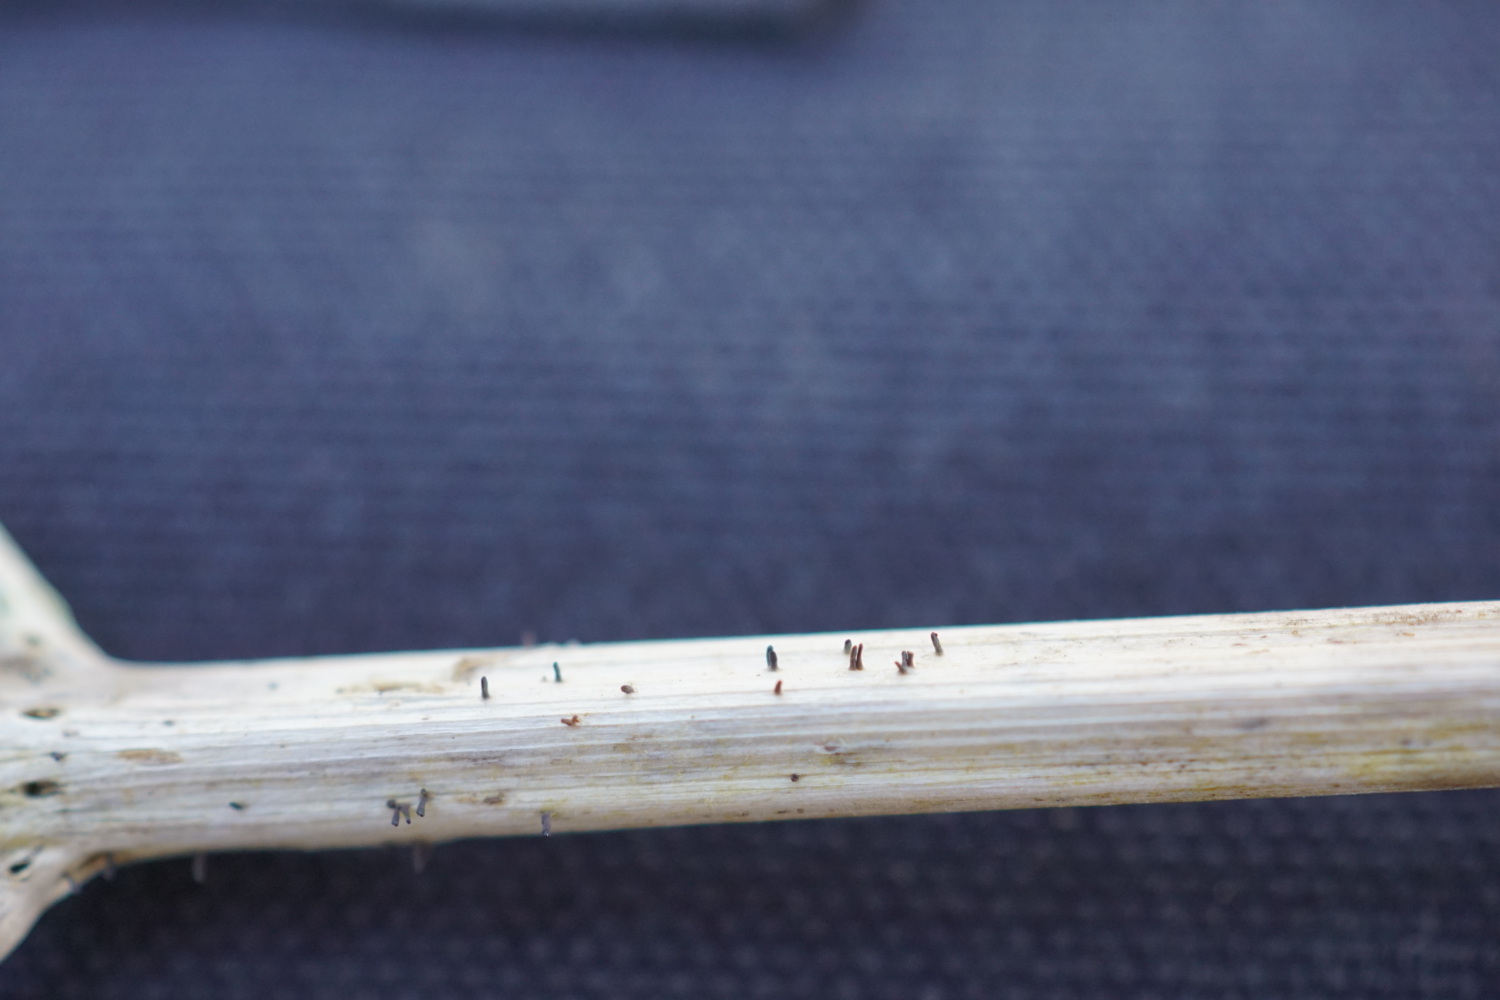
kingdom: Fungi
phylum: Ascomycota
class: Dothideomycetes
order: Acrospermales
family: Acrospermaceae
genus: Acrospermum
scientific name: Acrospermum compressum
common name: nælde-stængeltunge
